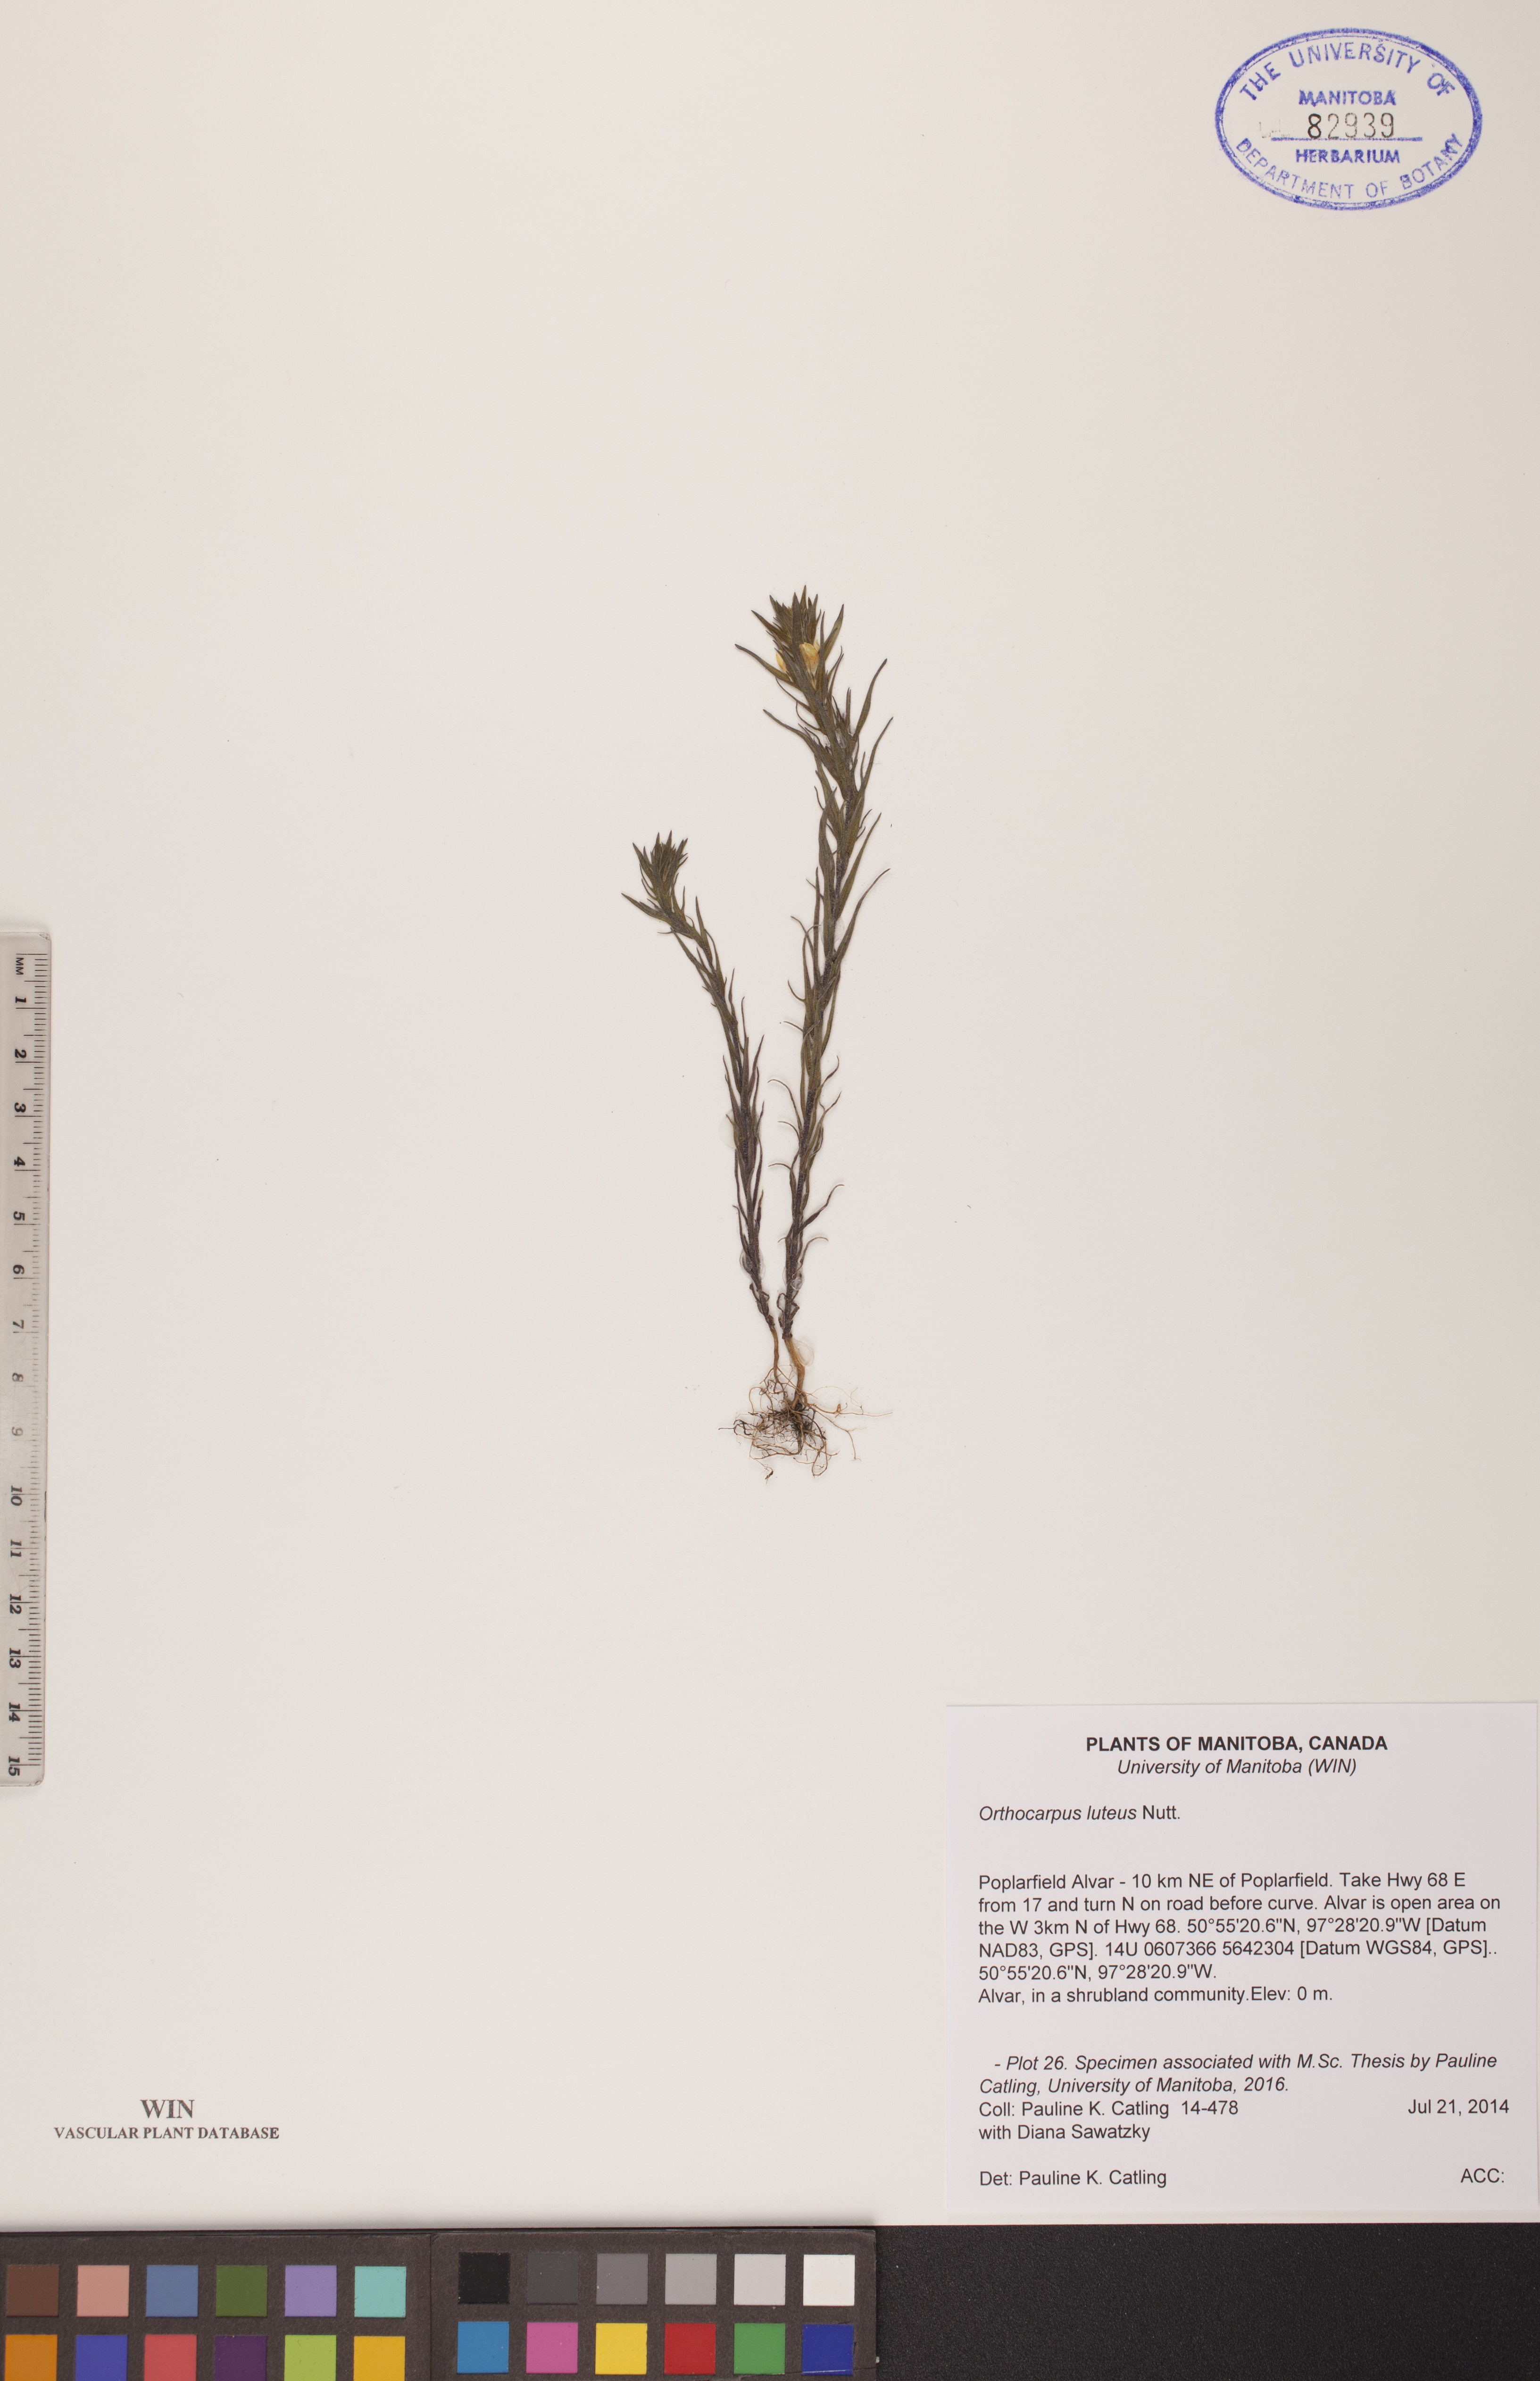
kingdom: Plantae
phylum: Tracheophyta
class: Magnoliopsida
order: Lamiales
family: Orobanchaceae
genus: Orthocarpus
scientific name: Orthocarpus luteus
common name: Golden-tongue owl's-clover
